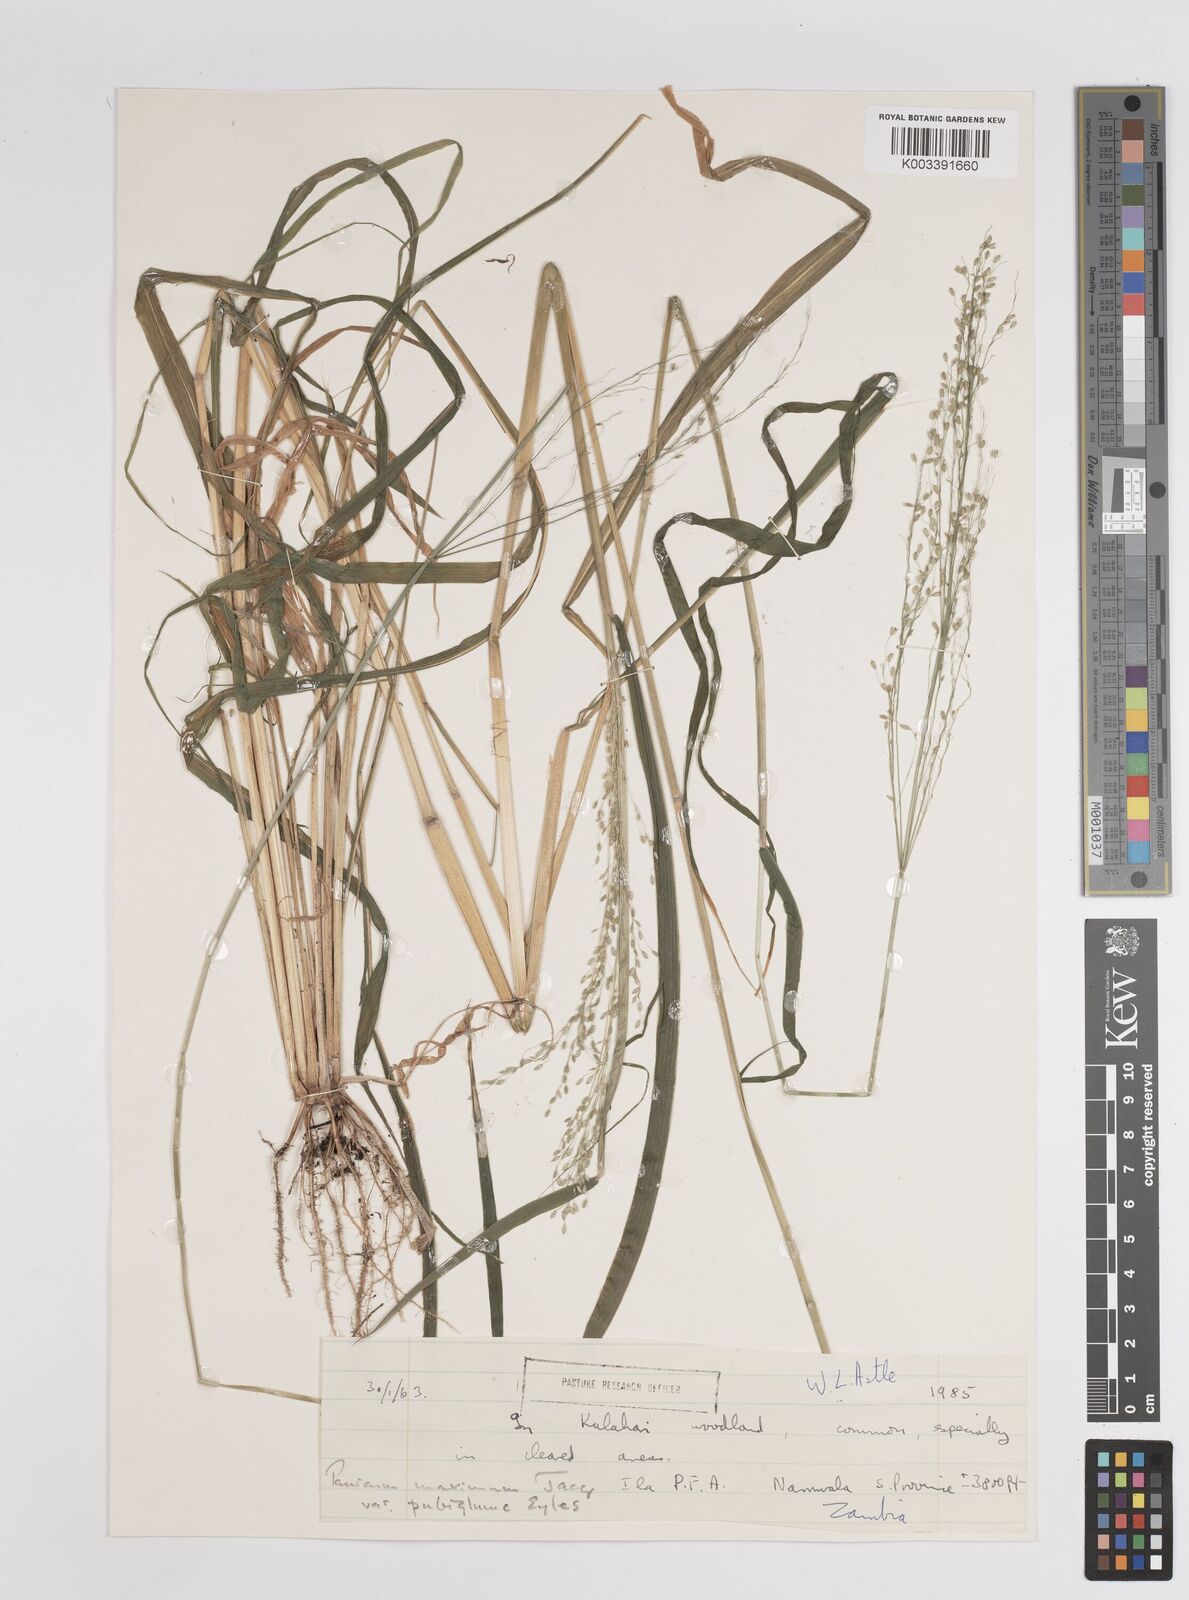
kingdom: Plantae
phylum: Tracheophyta
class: Liliopsida
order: Poales
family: Poaceae
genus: Megathyrsus
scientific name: Megathyrsus maximus
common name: Guineagrass
